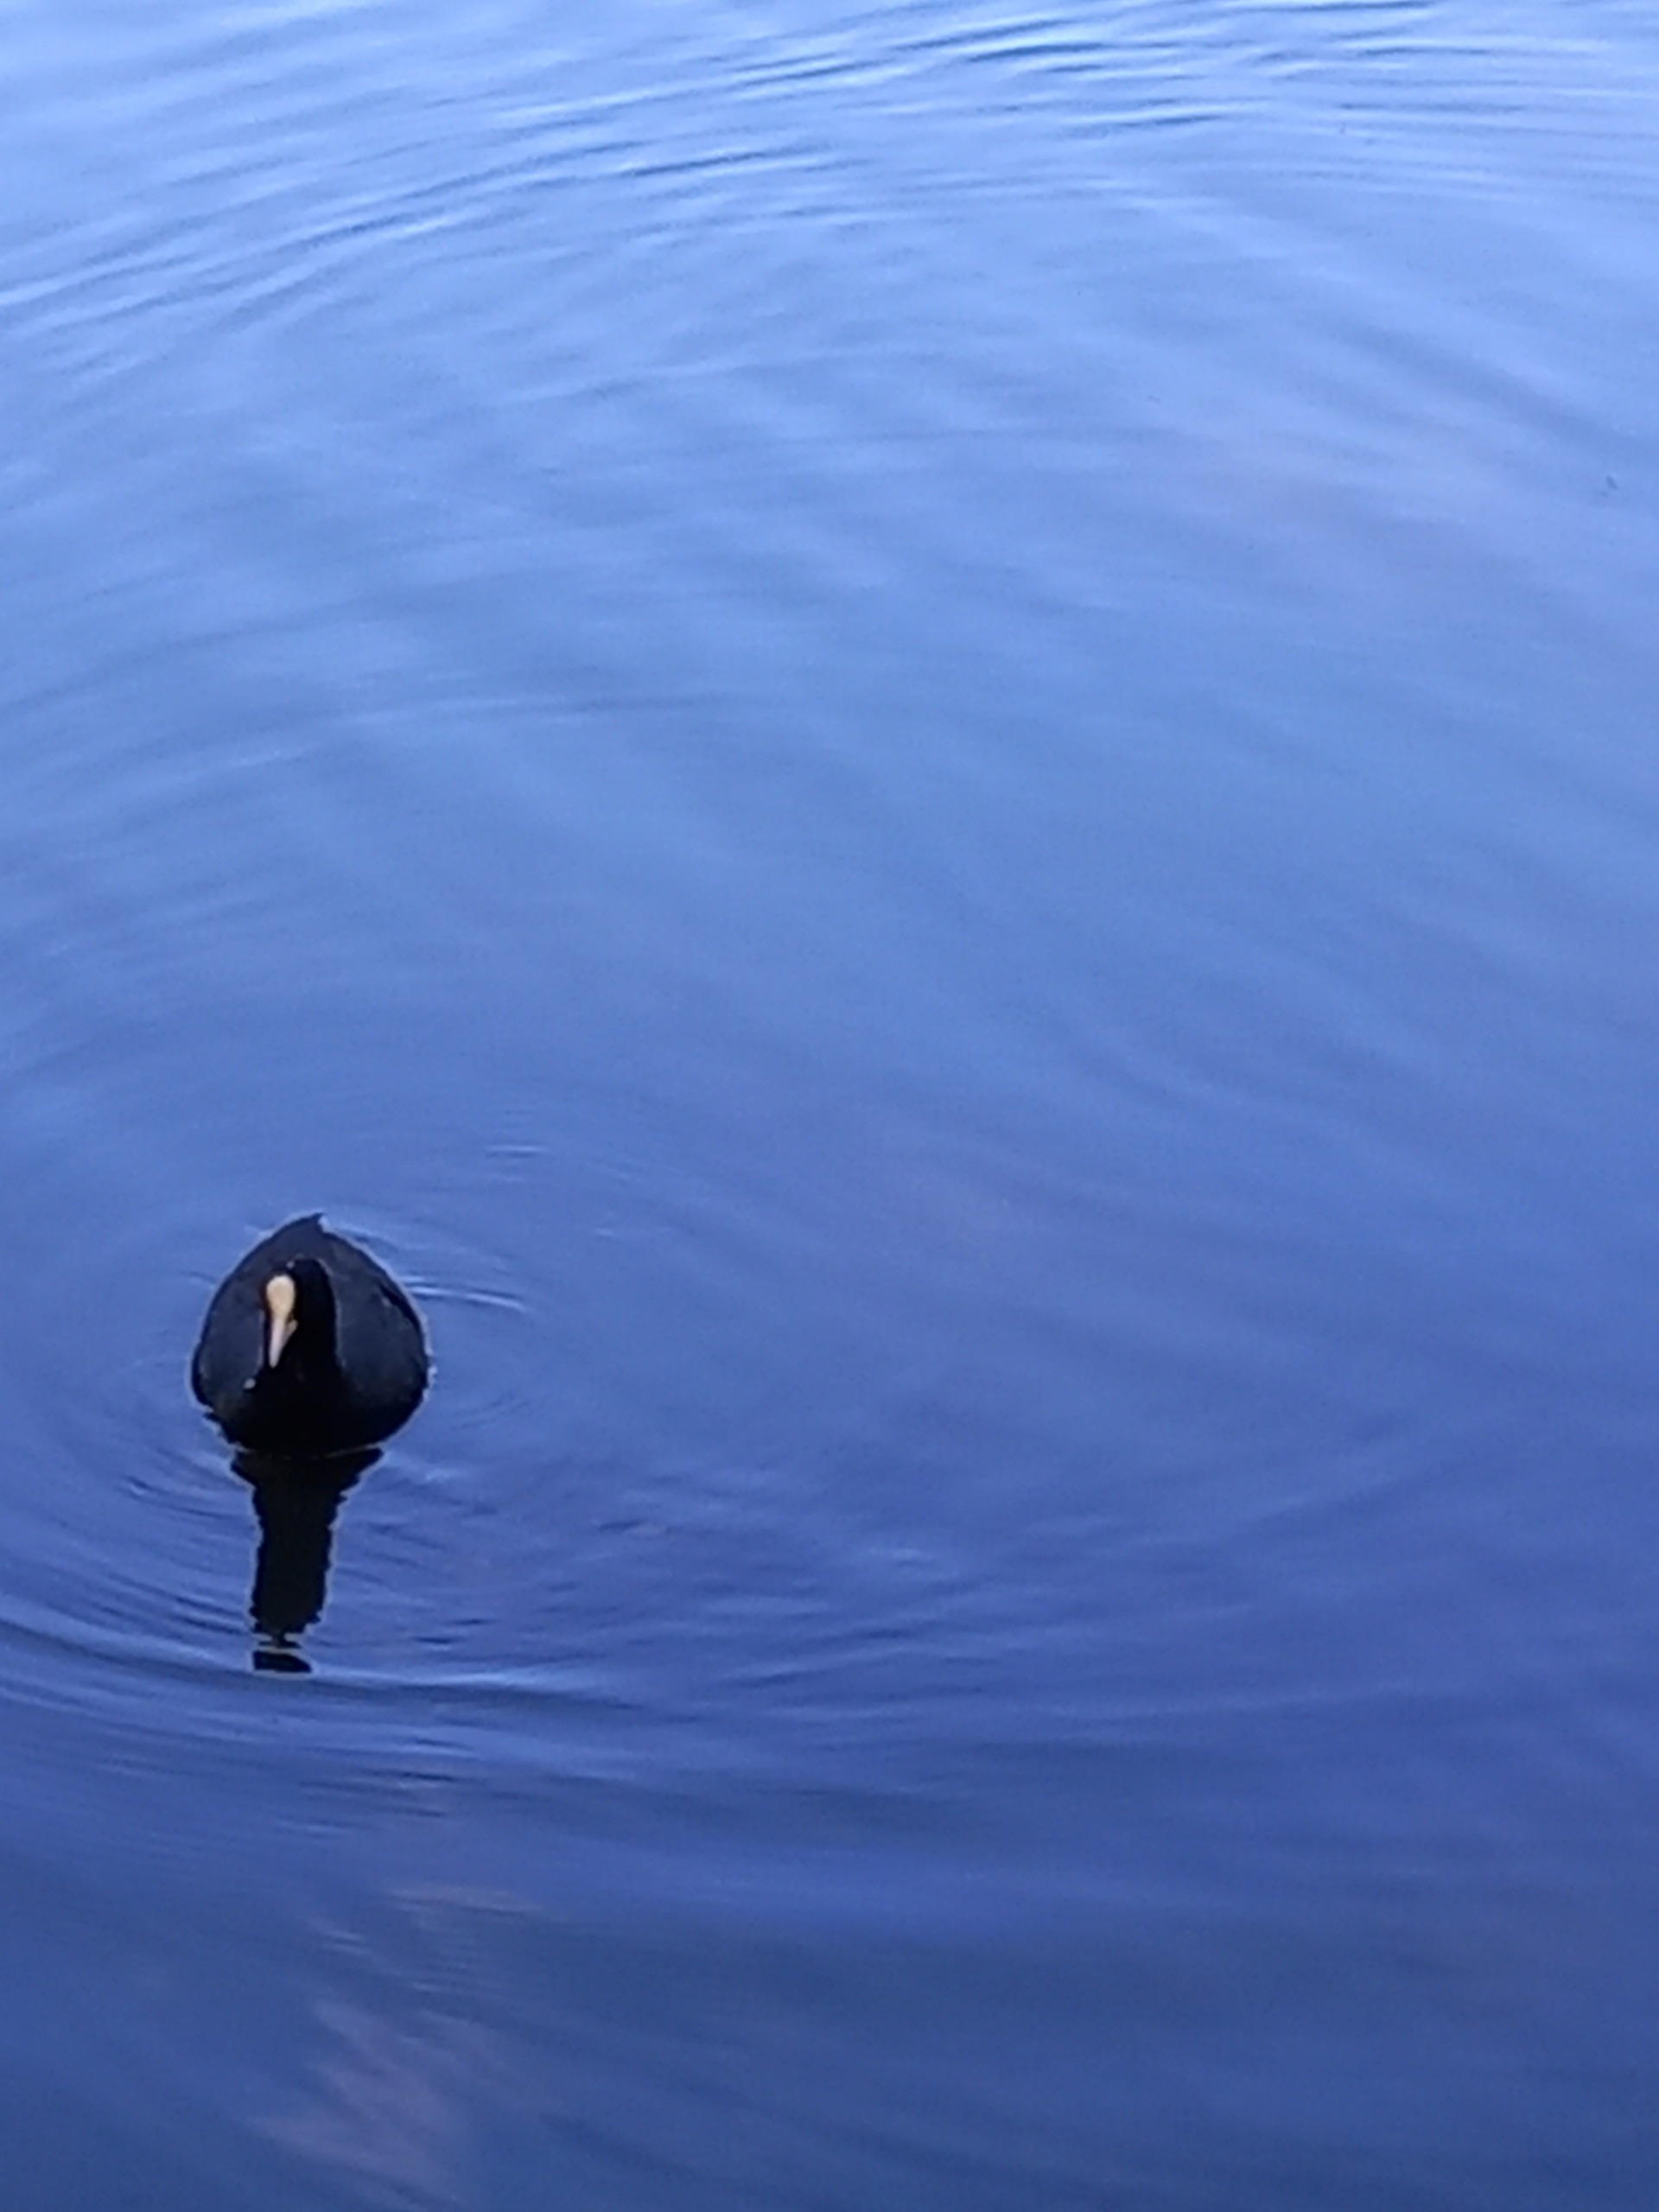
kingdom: Animalia
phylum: Chordata
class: Aves
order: Gruiformes
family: Rallidae
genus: Fulica
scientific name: Fulica atra
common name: Blishøne
